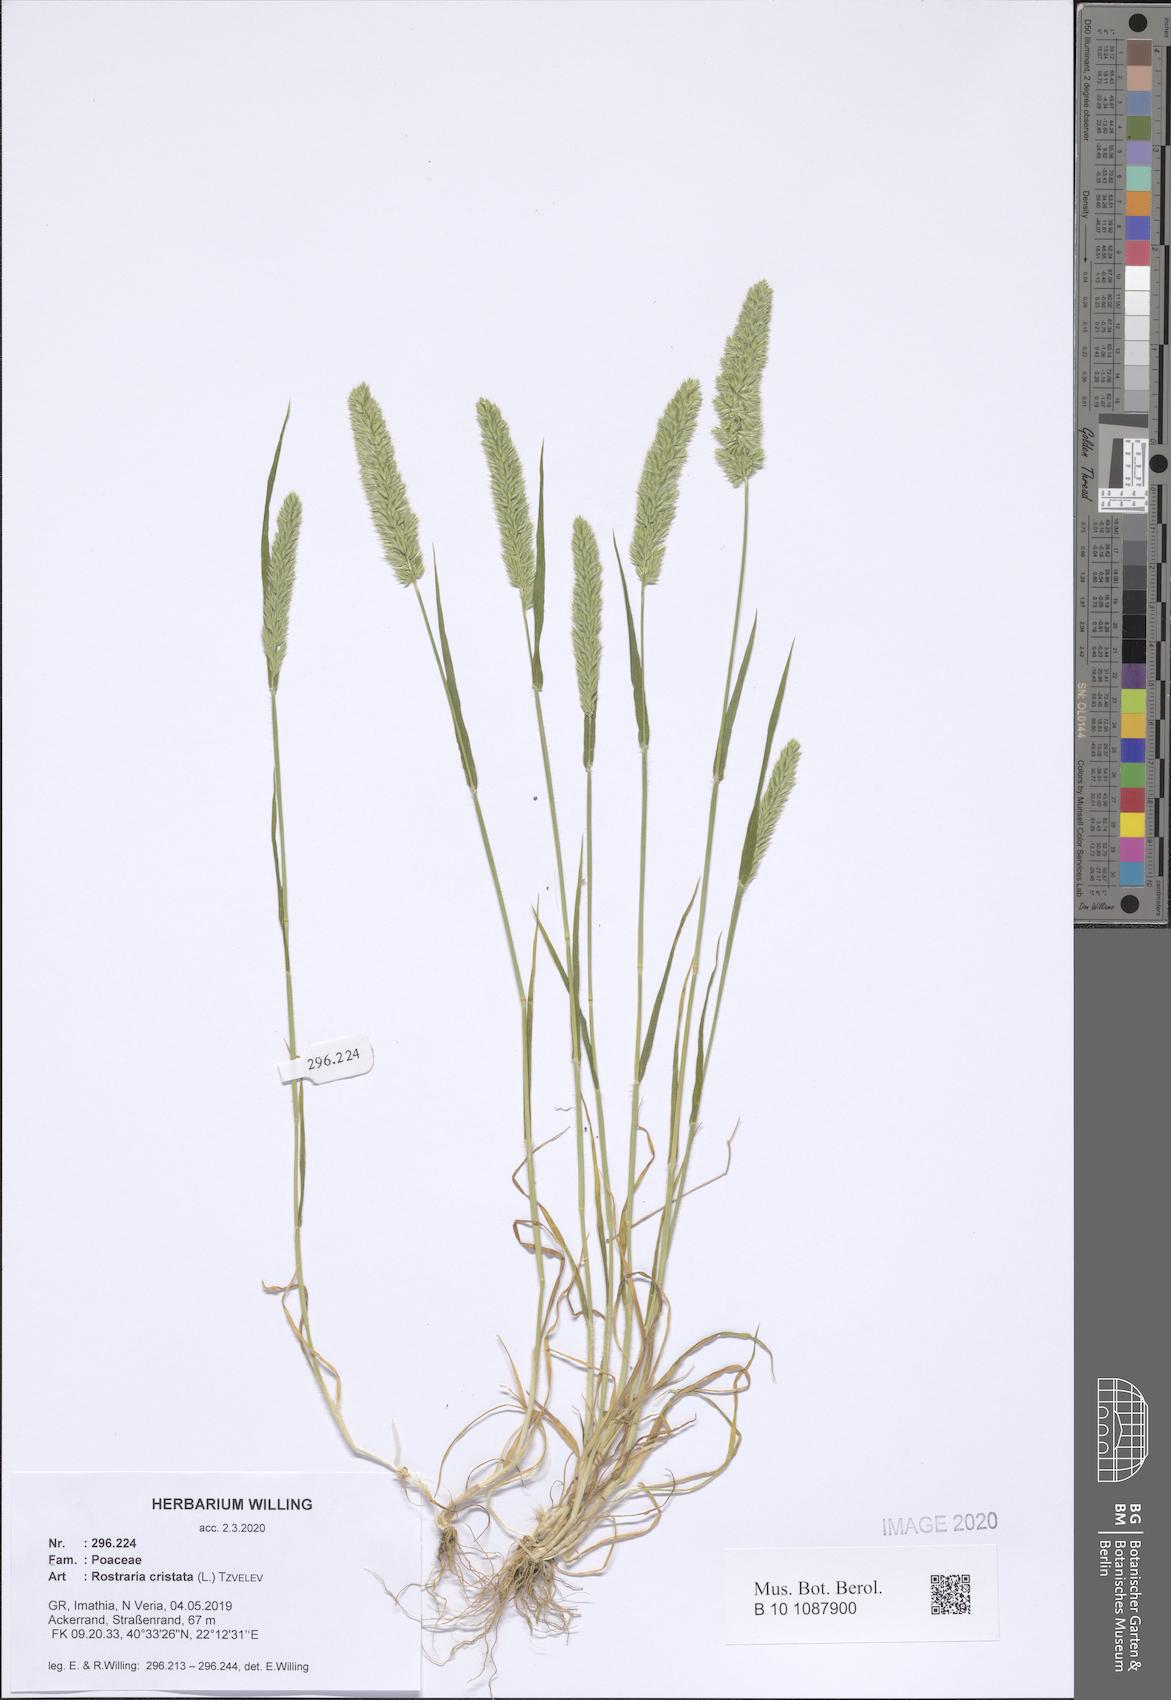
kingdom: Plantae
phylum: Tracheophyta
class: Liliopsida
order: Poales
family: Poaceae
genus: Rostraria
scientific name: Rostraria cristata
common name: Mediterranean hair-grass
